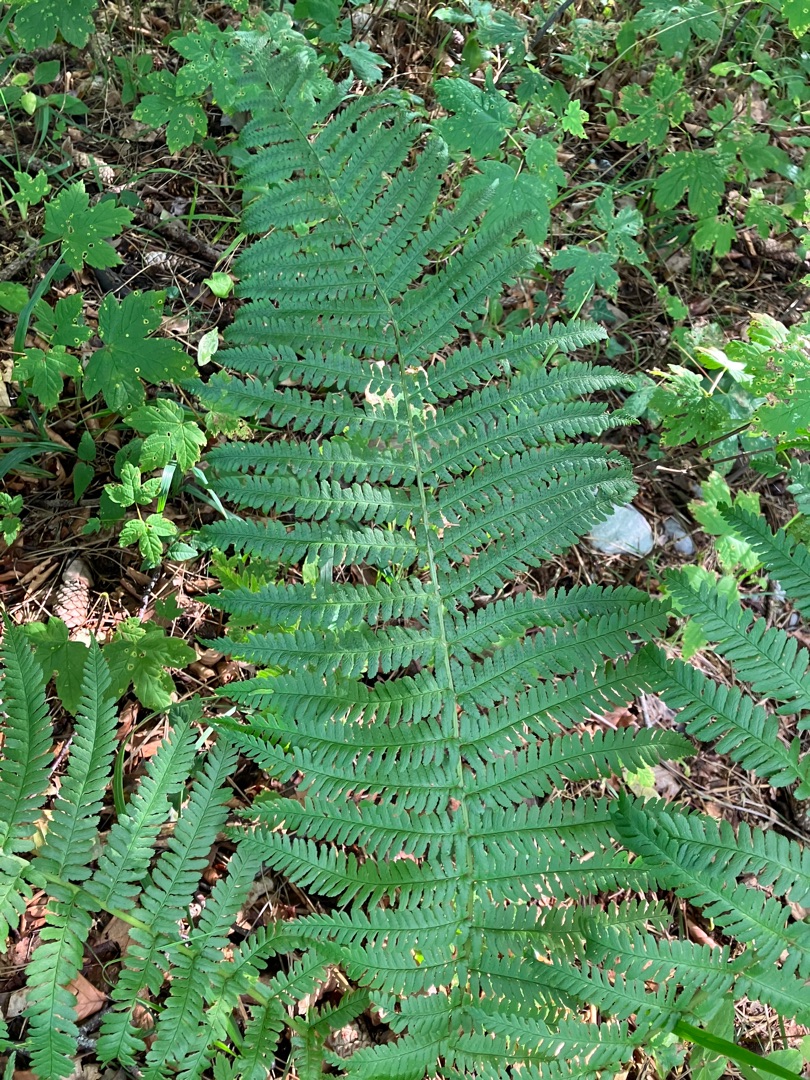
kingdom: Plantae
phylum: Tracheophyta
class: Polypodiopsida
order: Polypodiales
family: Dryopteridaceae
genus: Dryopteris
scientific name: Dryopteris filix-mas
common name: Almindelig mangeløv
